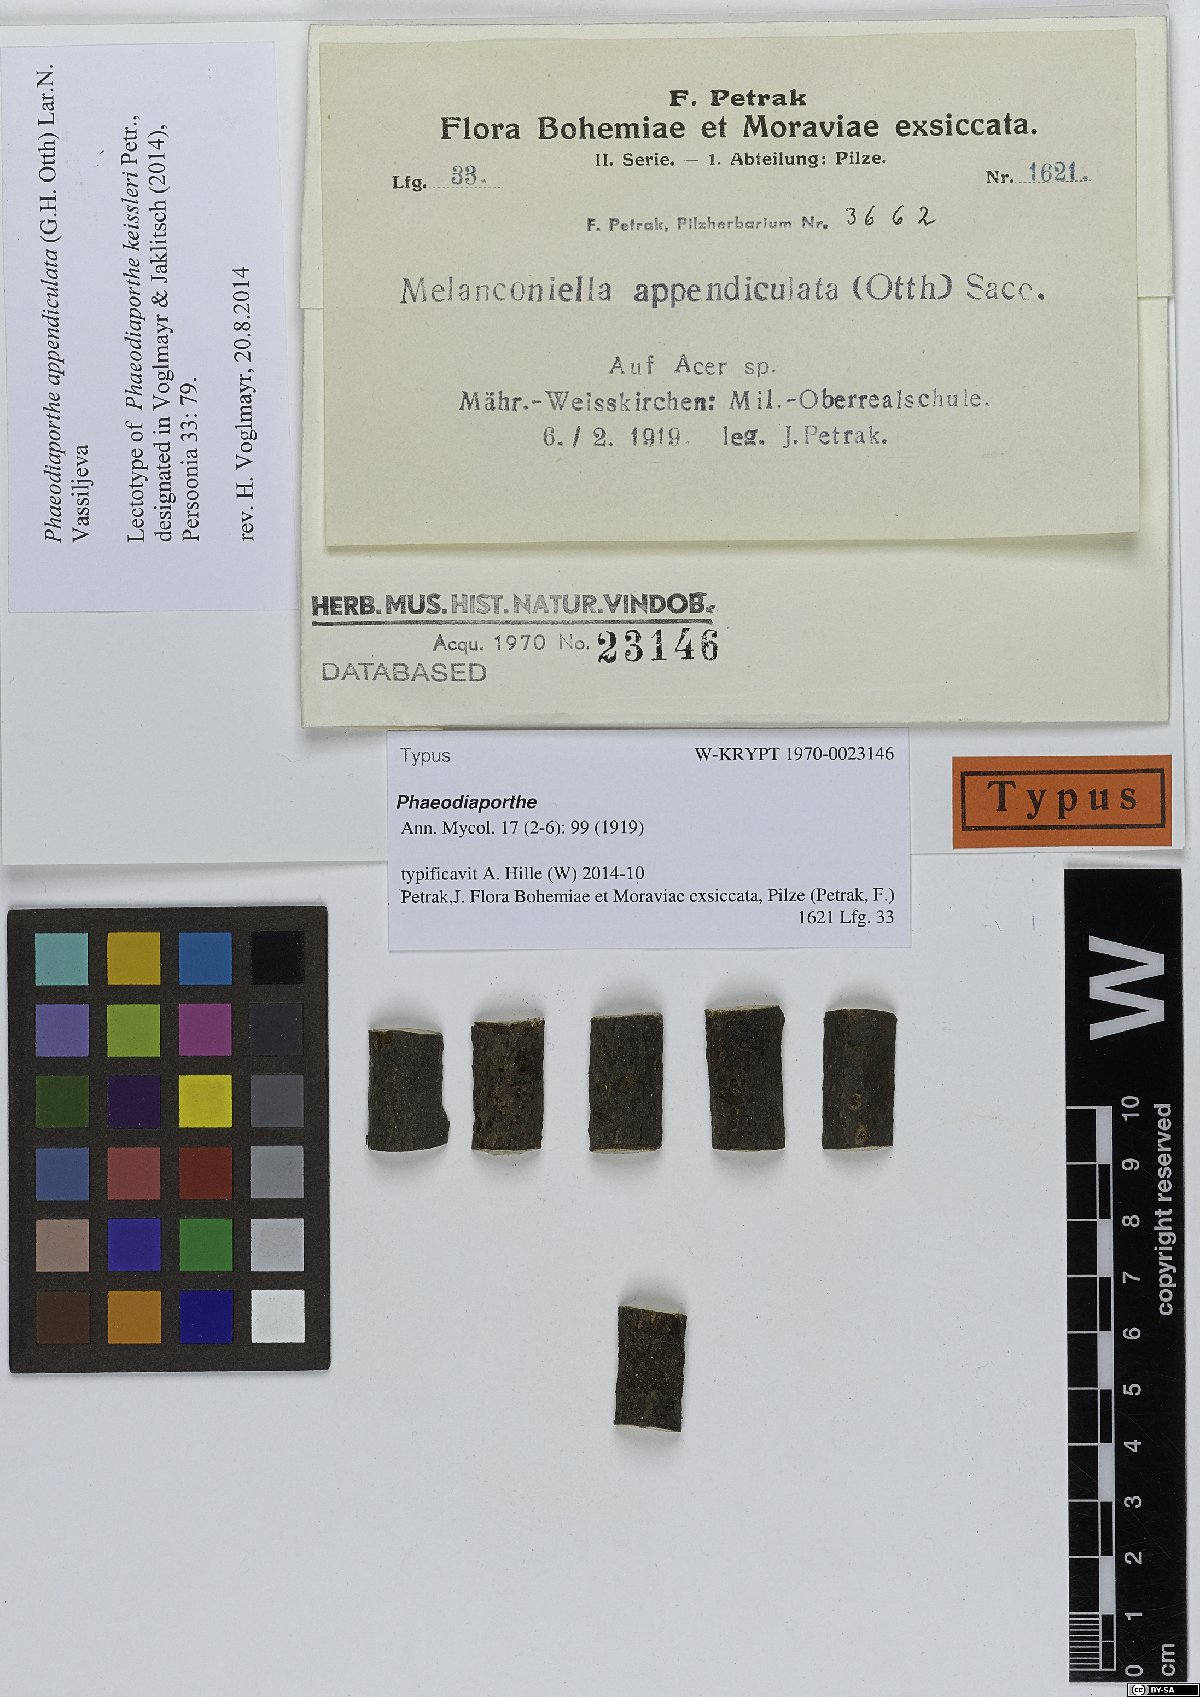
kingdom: Fungi
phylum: Ascomycota
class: Sordariomycetes
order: Diaporthales
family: Melanconidaceae
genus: Phaeodiaporthe
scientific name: Phaeodiaporthe keissleri
